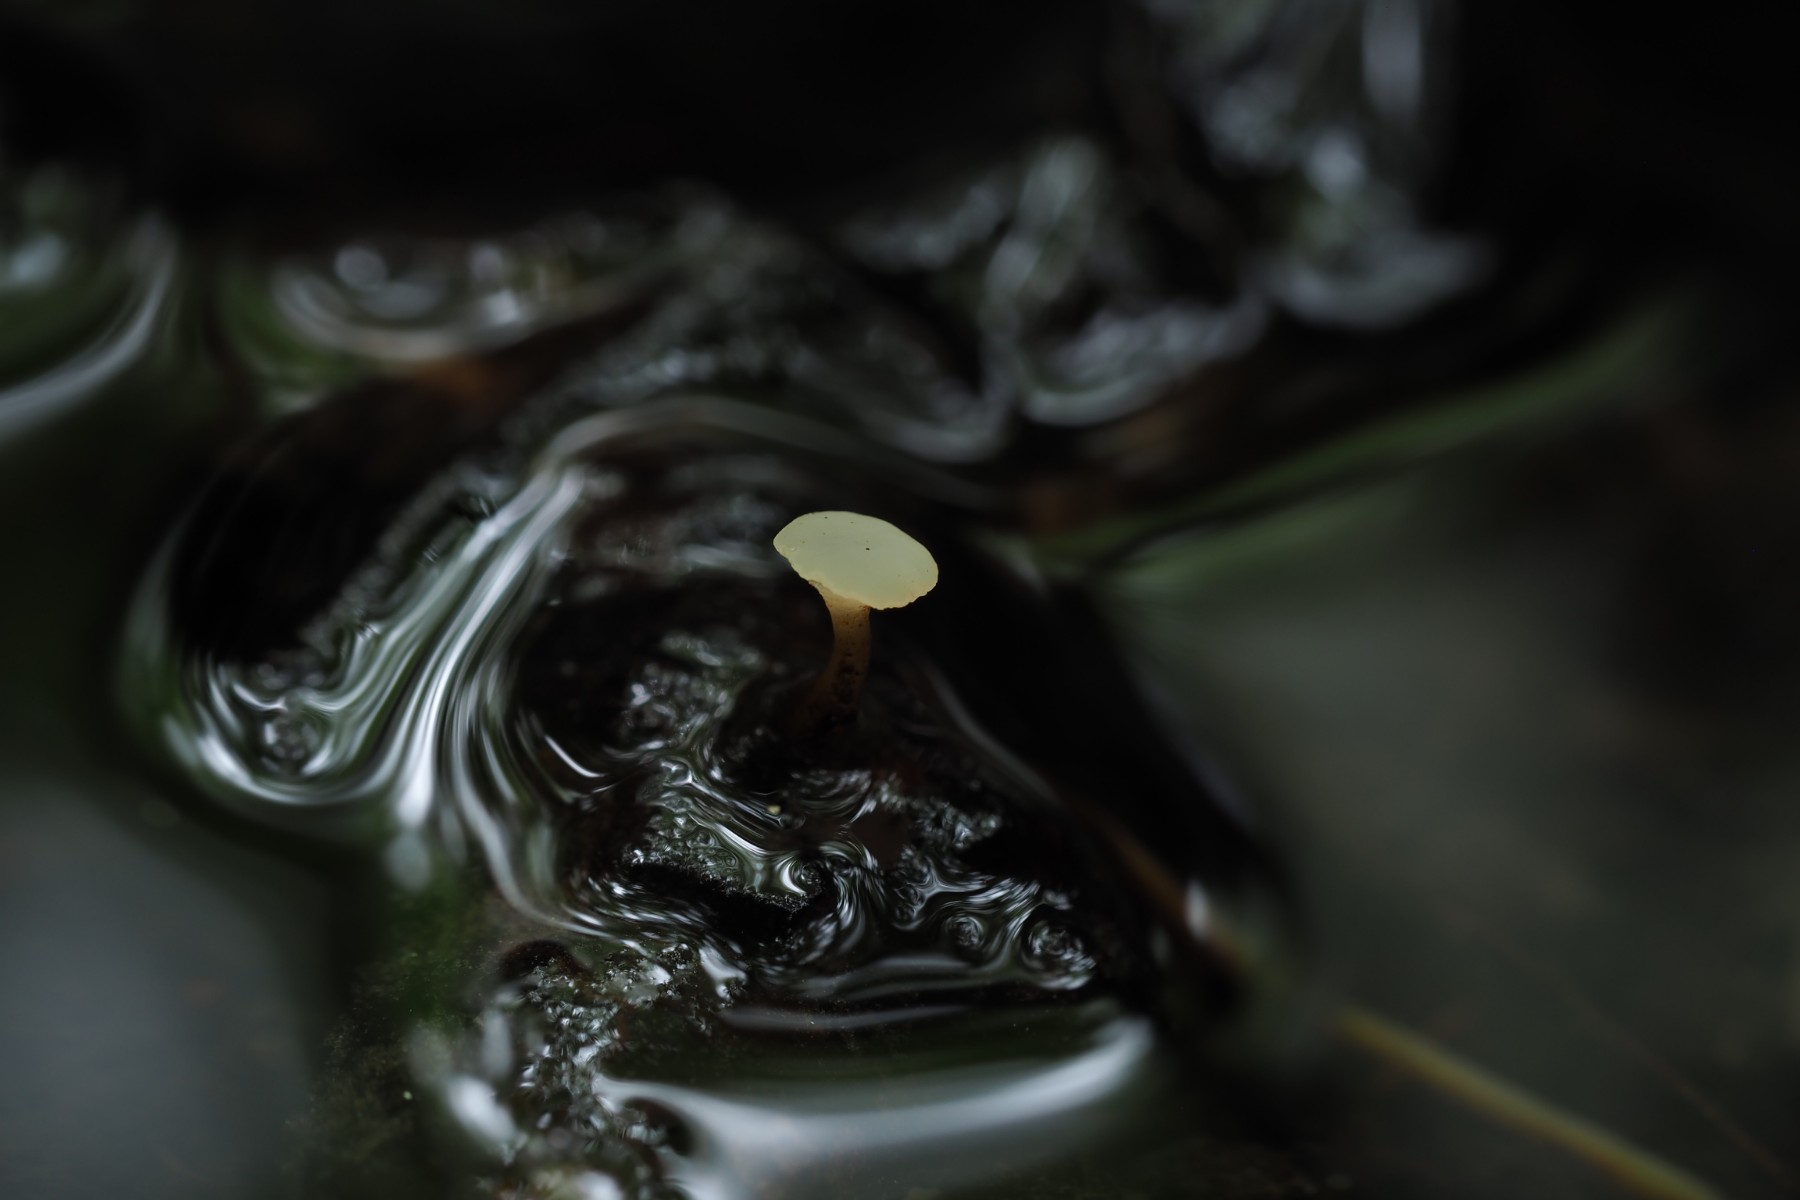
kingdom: Fungi
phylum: Ascomycota
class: Leotiomycetes
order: Helotiales
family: Tricladiaceae
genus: Cudoniella
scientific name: Cudoniella clavus
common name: stor dyndskive
